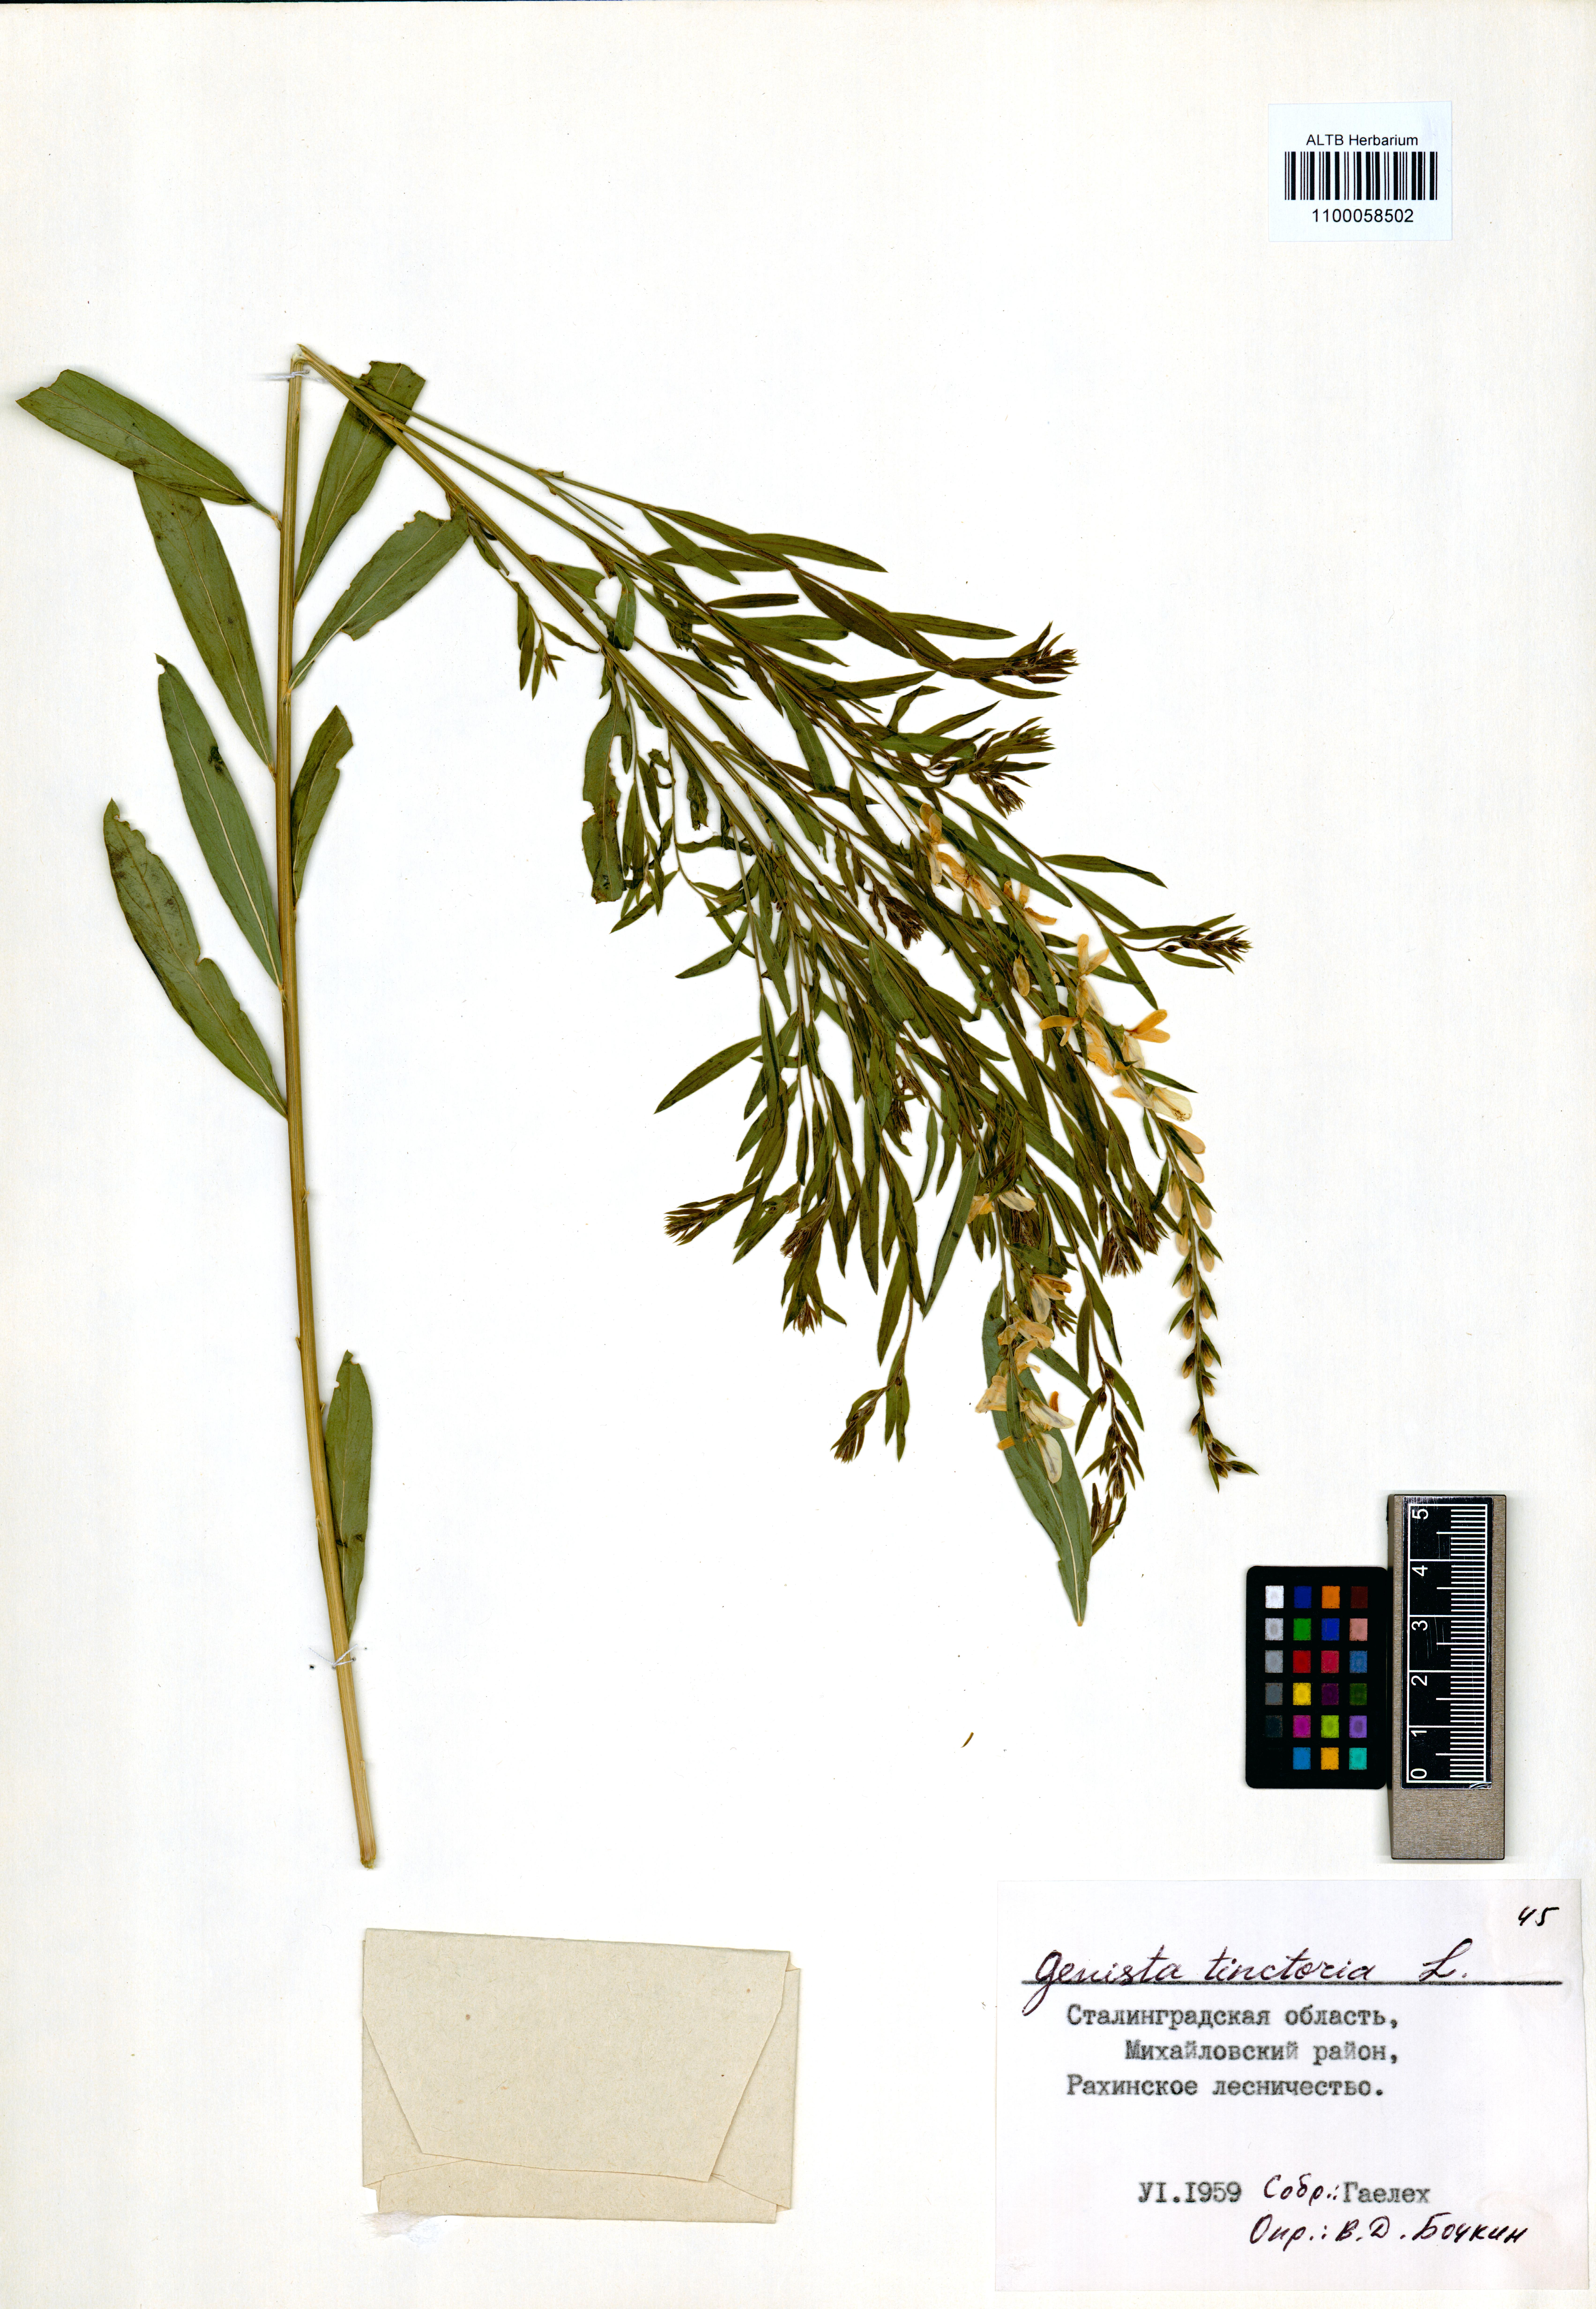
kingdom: Plantae
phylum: Tracheophyta
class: Magnoliopsida
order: Fabales
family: Fabaceae
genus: Genista
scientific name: Genista tinctoria
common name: Dyer's greenweed
